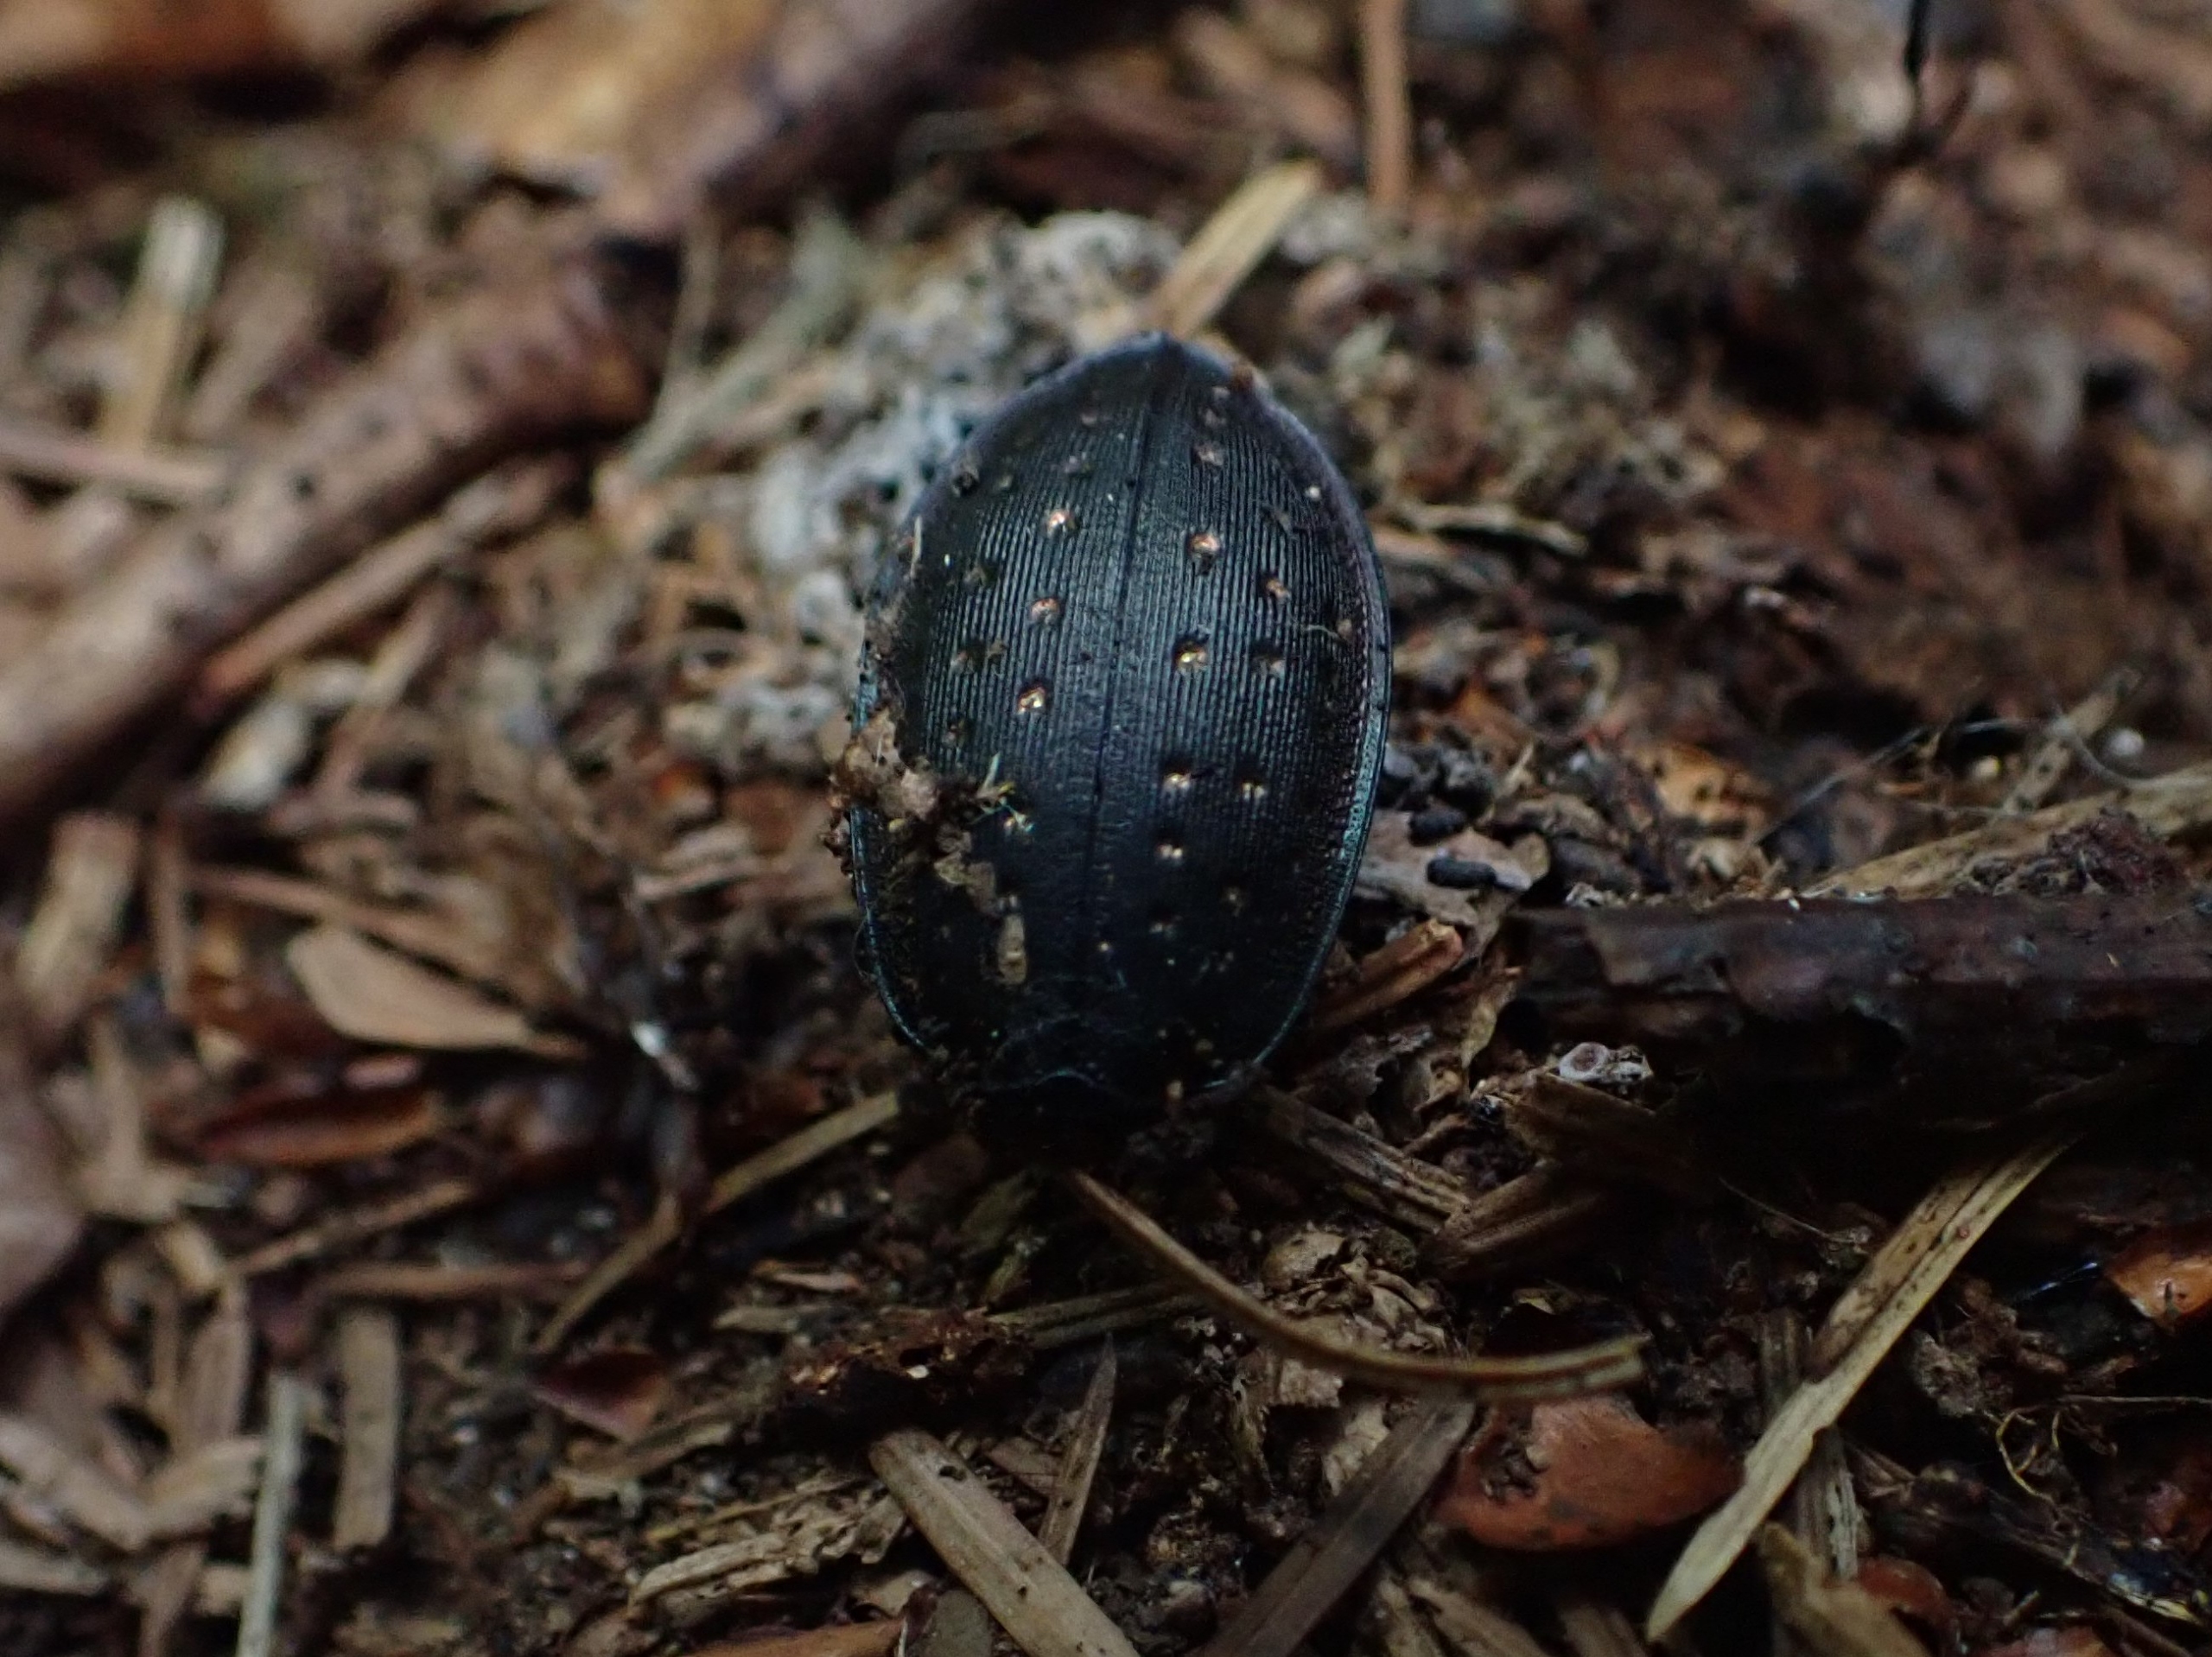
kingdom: Animalia
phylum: Arthropoda
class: Insecta
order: Coleoptera
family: Carabidae
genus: Carabus
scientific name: Carabus hortensis
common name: Guldpletløber
